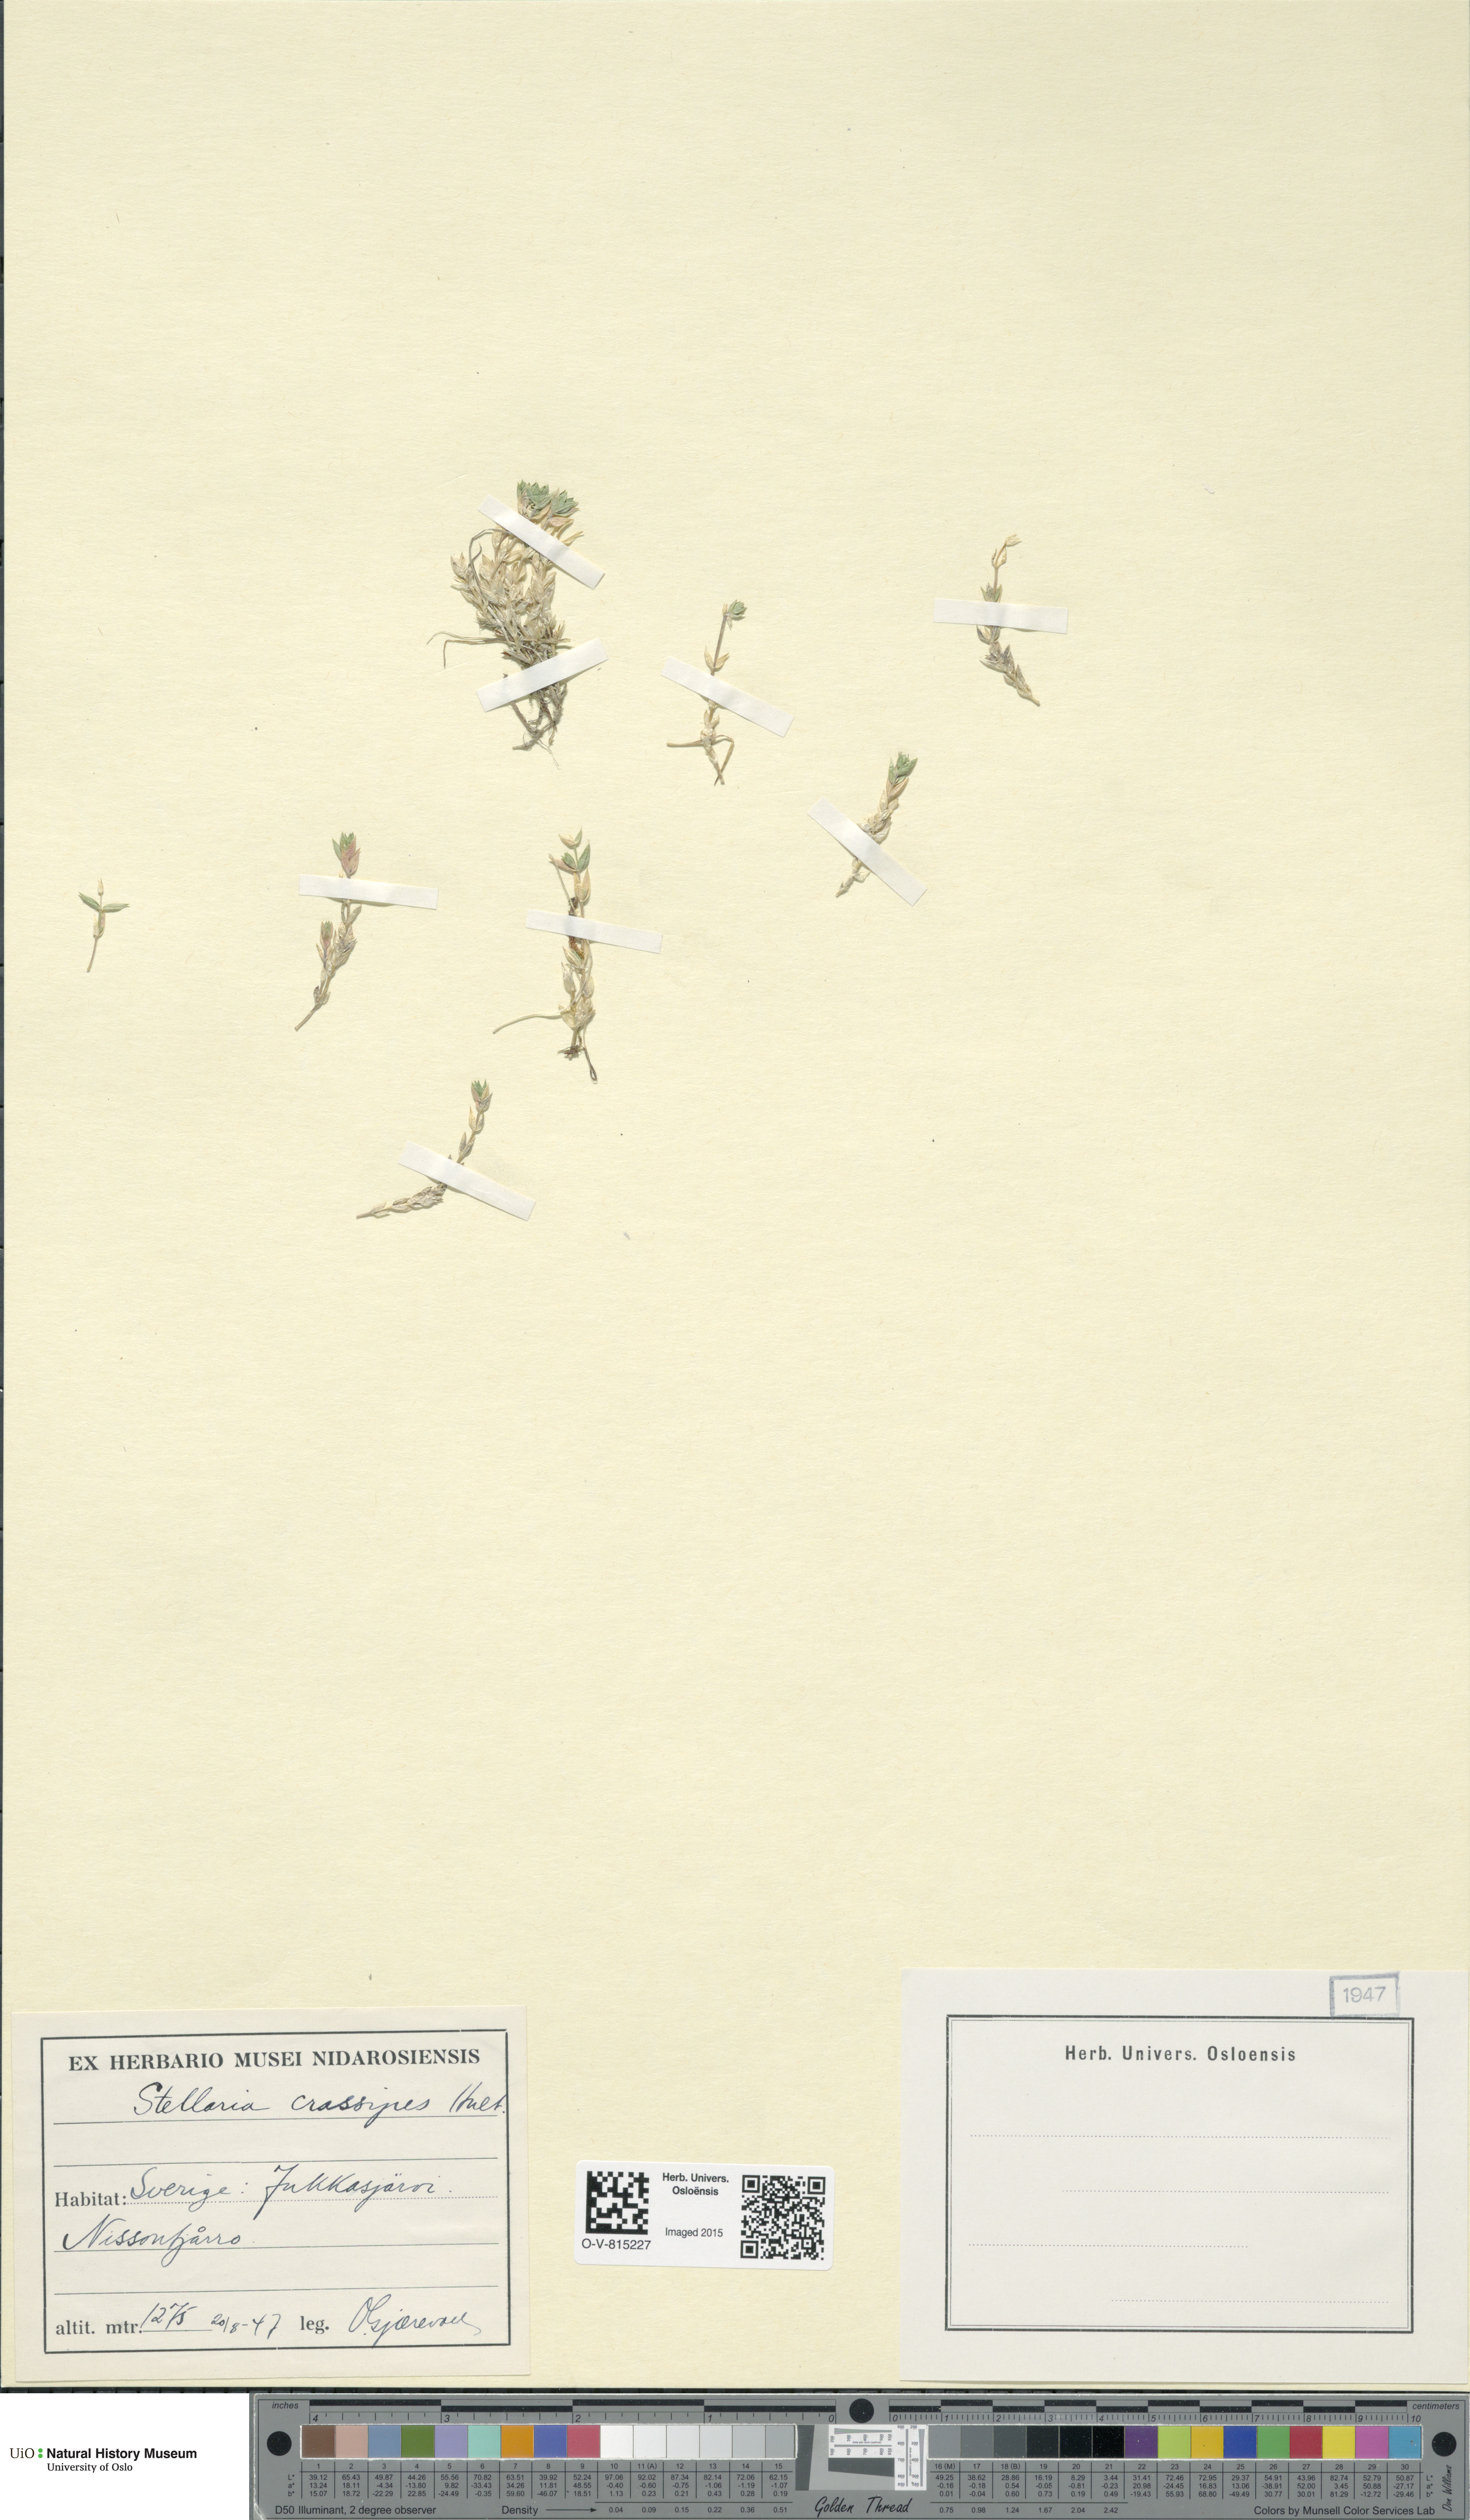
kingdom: Plantae
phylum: Tracheophyta
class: Magnoliopsida
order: Caryophyllales
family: Caryophyllaceae
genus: Stellaria
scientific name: Stellaria longipes
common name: Goldie's starwort
